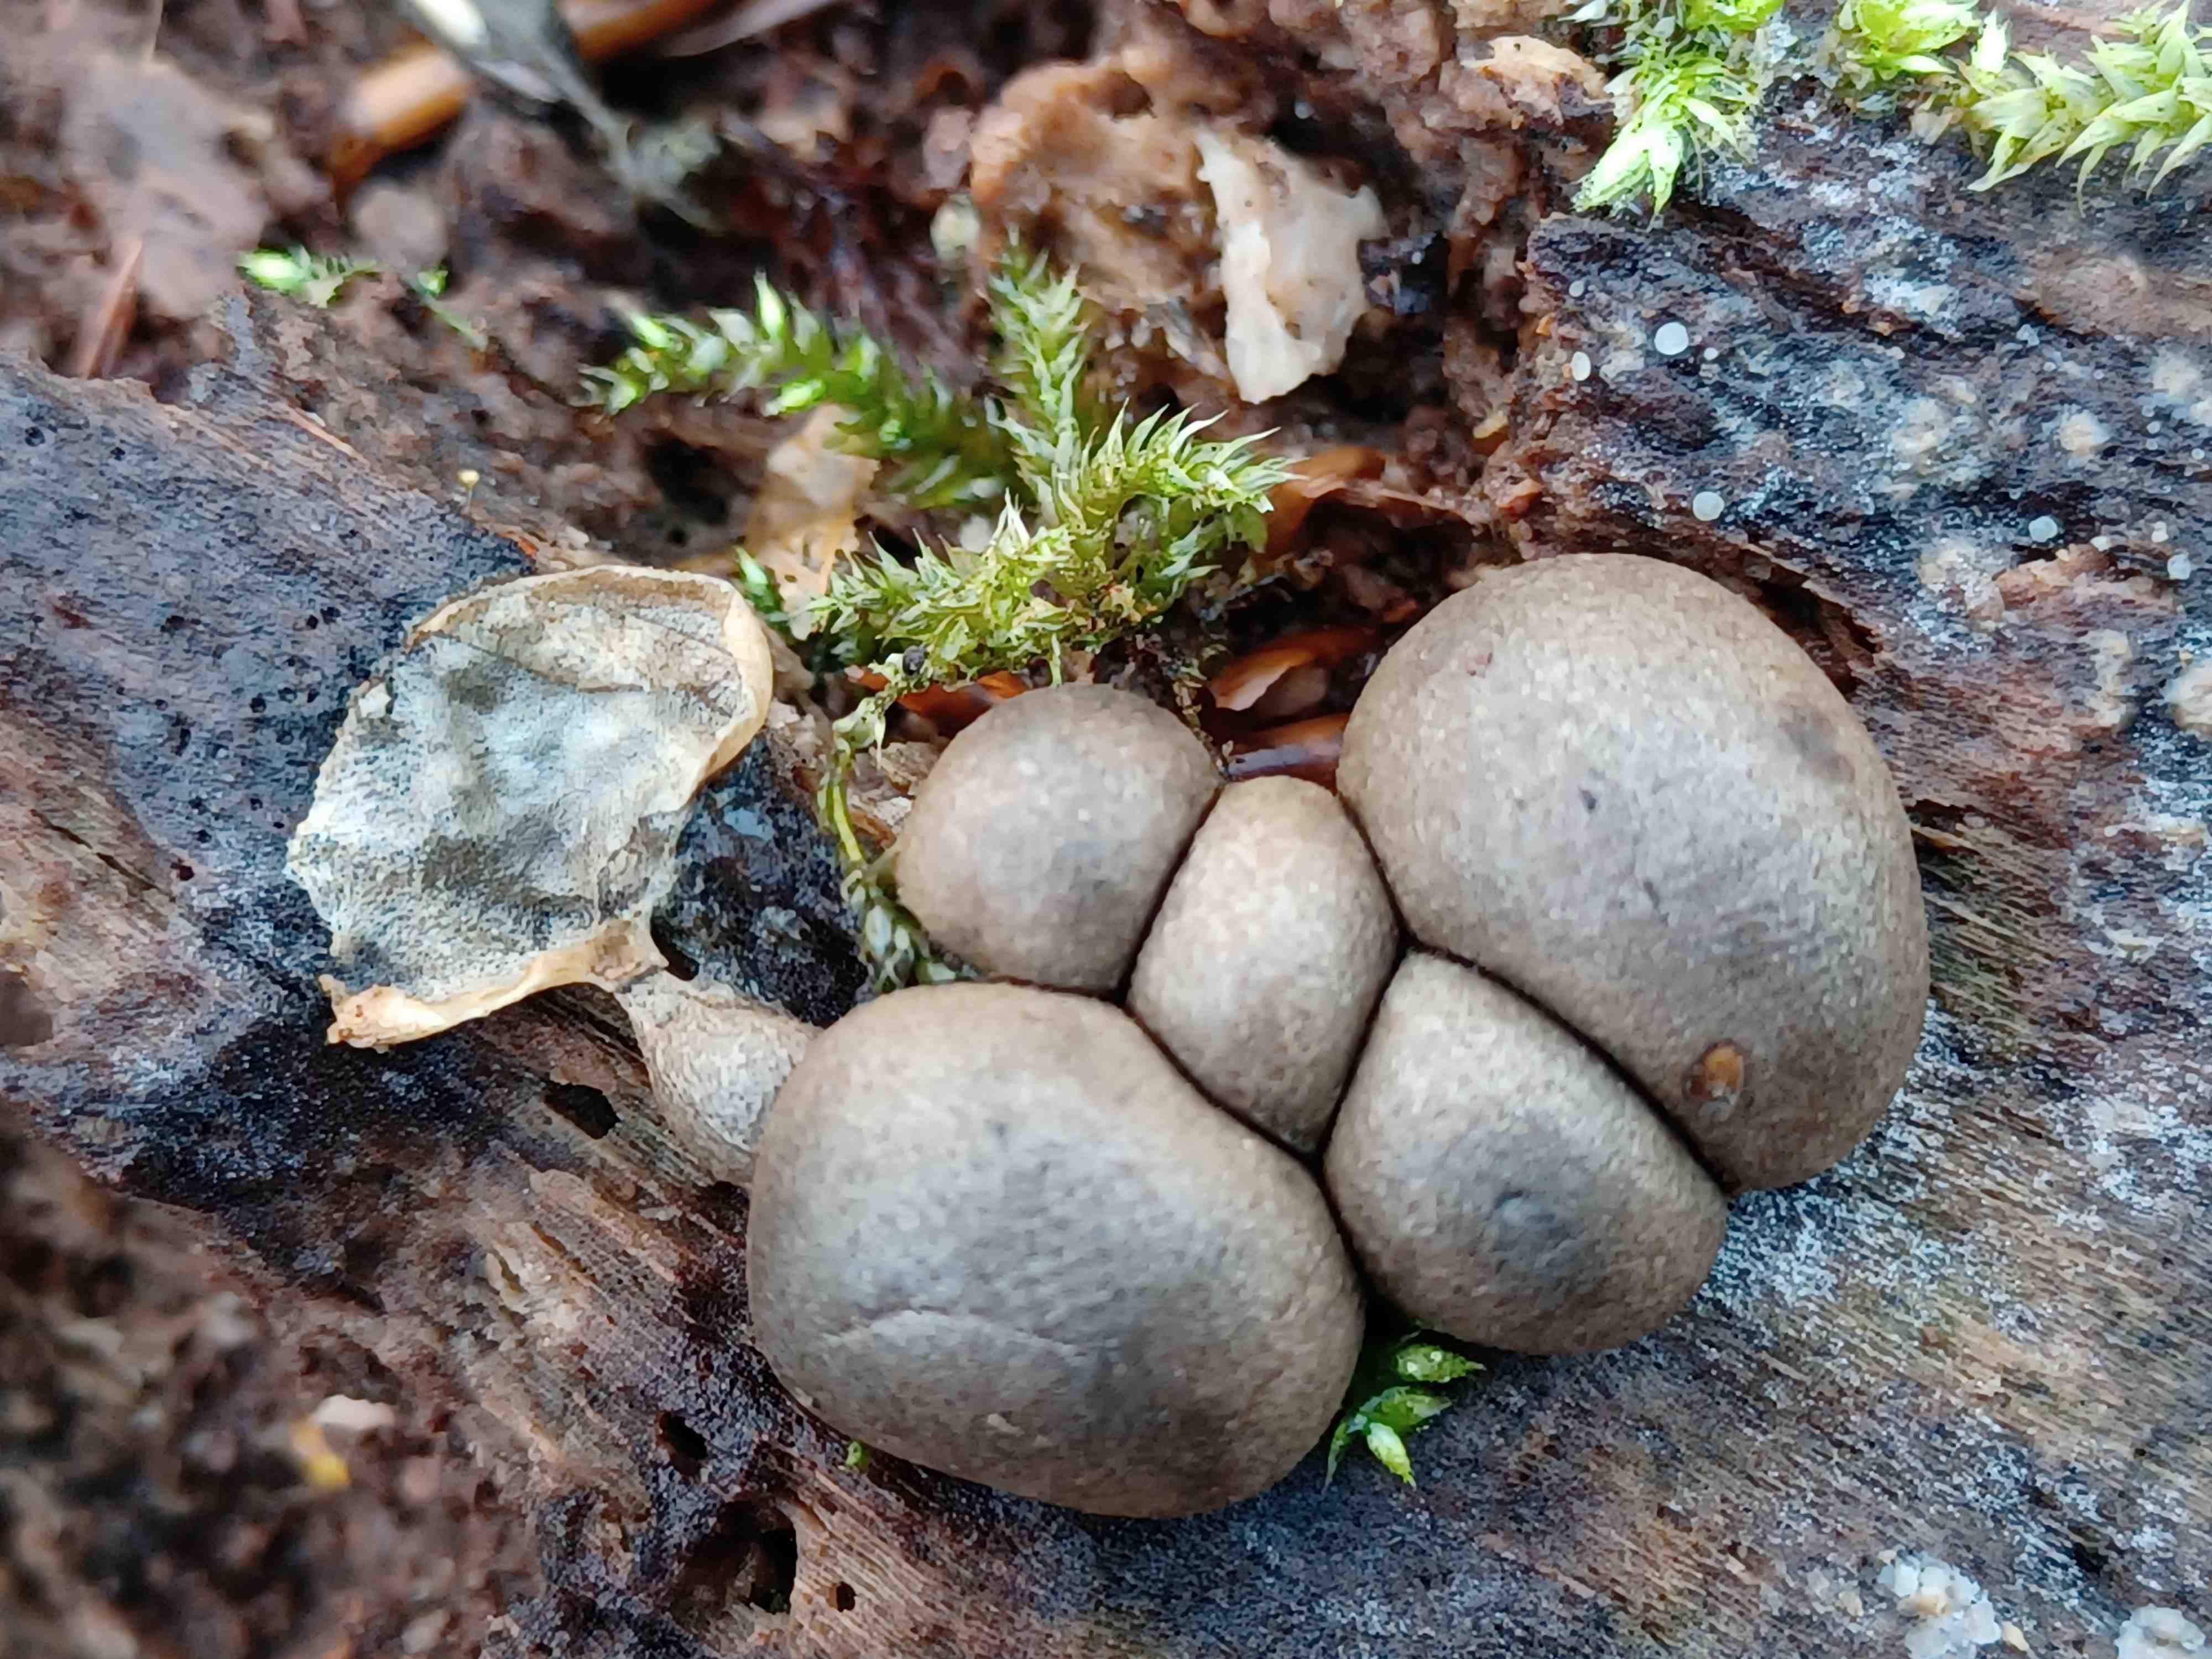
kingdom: Protozoa
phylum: Mycetozoa
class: Myxomycetes
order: Cribrariales
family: Tubiferaceae
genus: Lycogala
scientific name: Lycogala epidendrum
